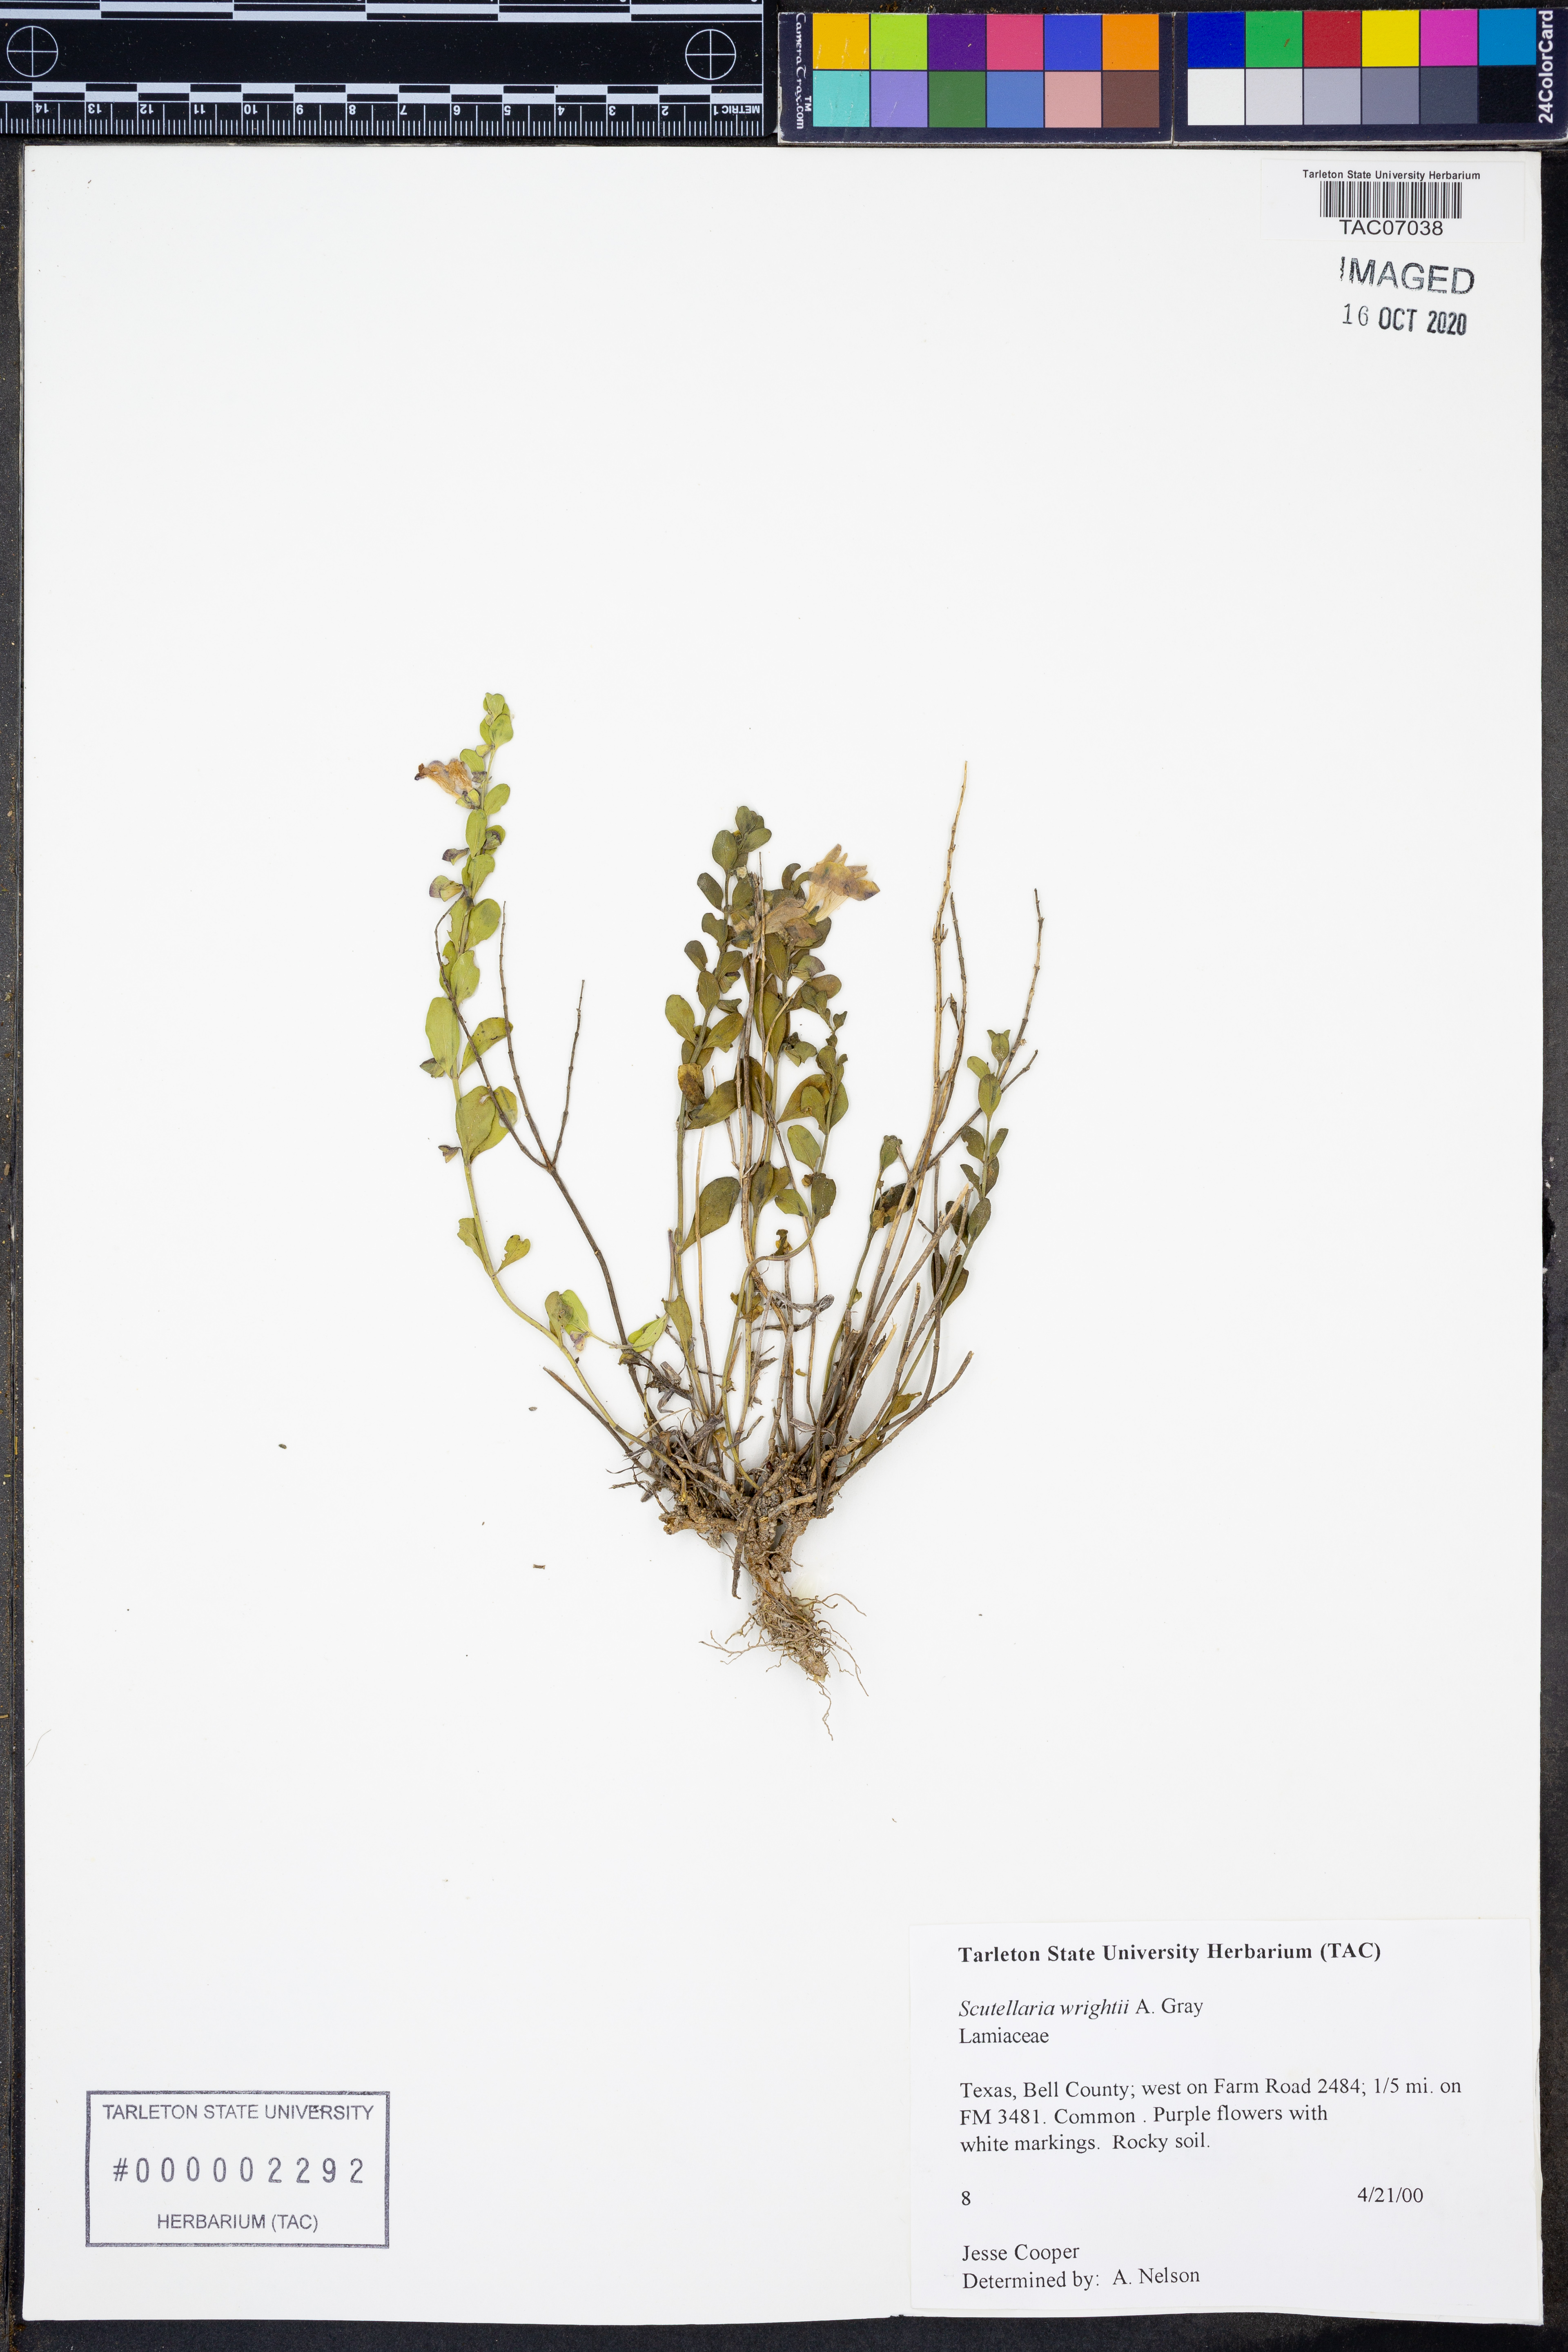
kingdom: Plantae
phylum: Tracheophyta
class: Magnoliopsida
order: Lamiales
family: Lamiaceae
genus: Scutellaria
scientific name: Scutellaria wrightii
